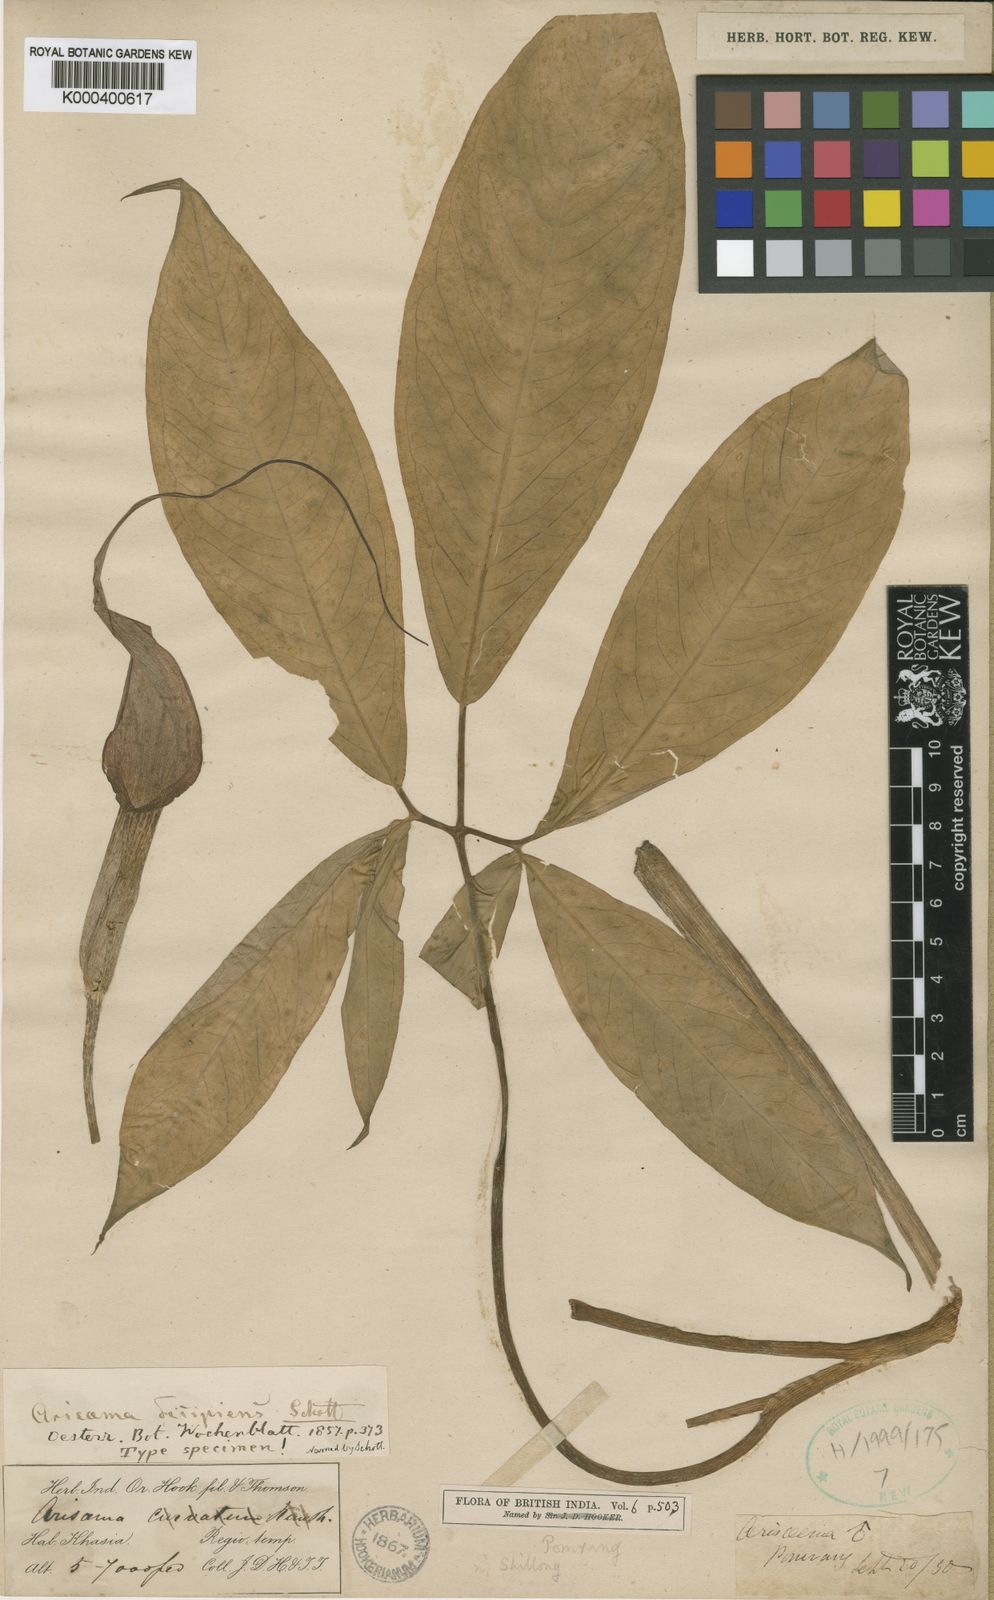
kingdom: Plantae
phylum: Tracheophyta
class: Liliopsida
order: Alismatales
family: Araceae
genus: Arisaema
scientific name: Arisaema decipiens
